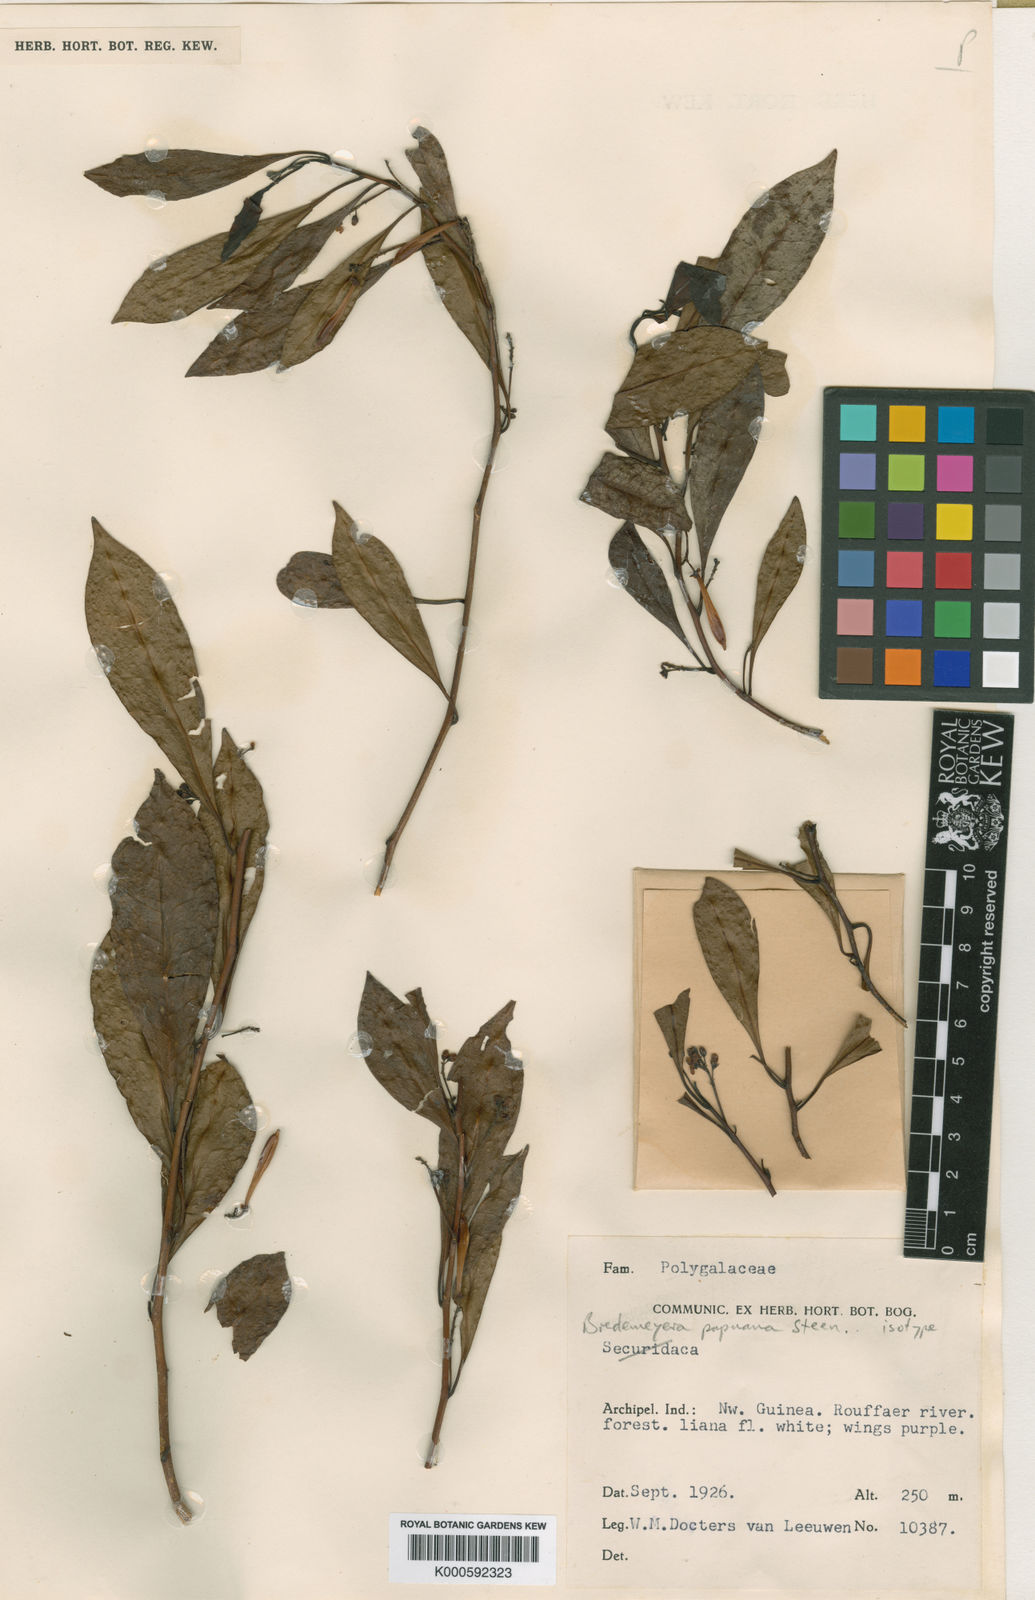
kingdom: Plantae
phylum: Tracheophyta
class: Magnoliopsida
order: Fabales
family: Polygalaceae
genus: Polygala
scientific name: Polygala papuana
